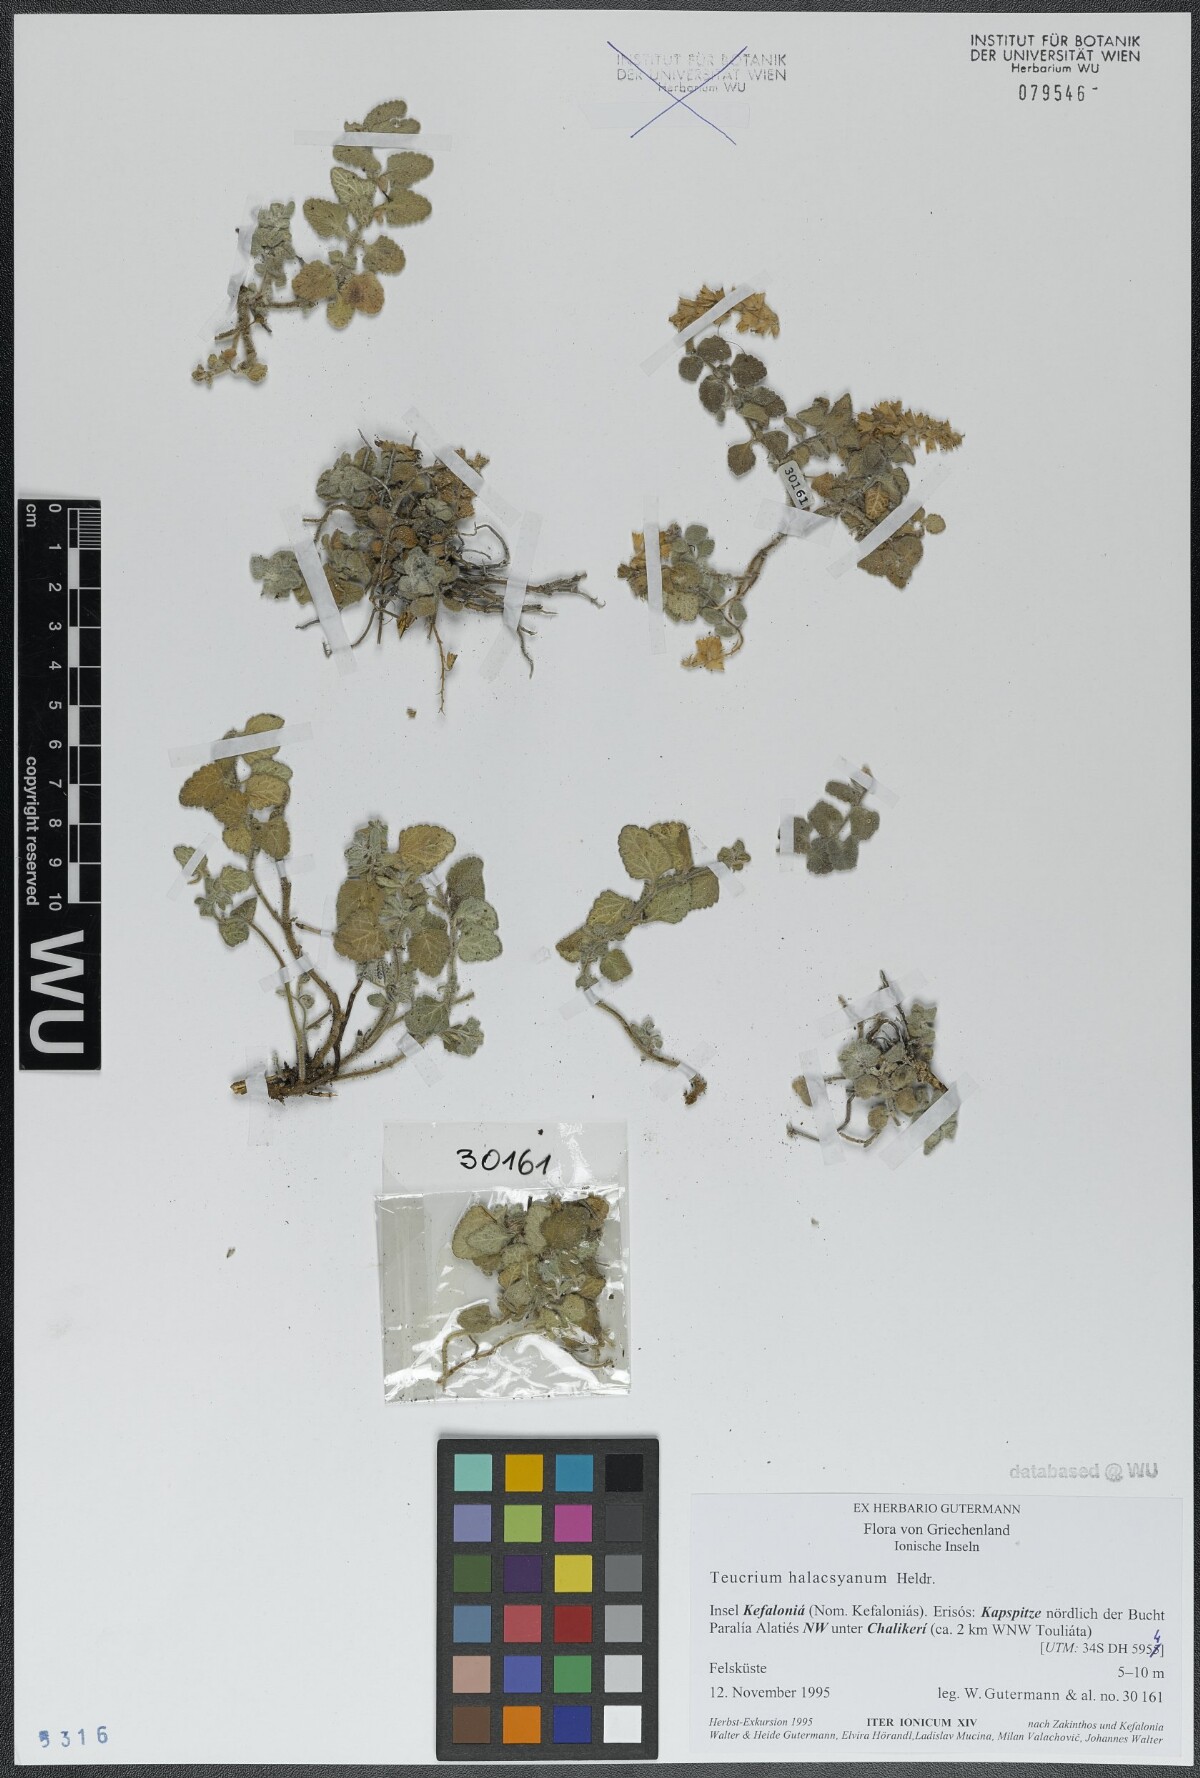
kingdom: Plantae
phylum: Tracheophyta
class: Magnoliopsida
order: Lamiales
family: Lamiaceae
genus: Teucrium
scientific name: Teucrium halacsyanum
